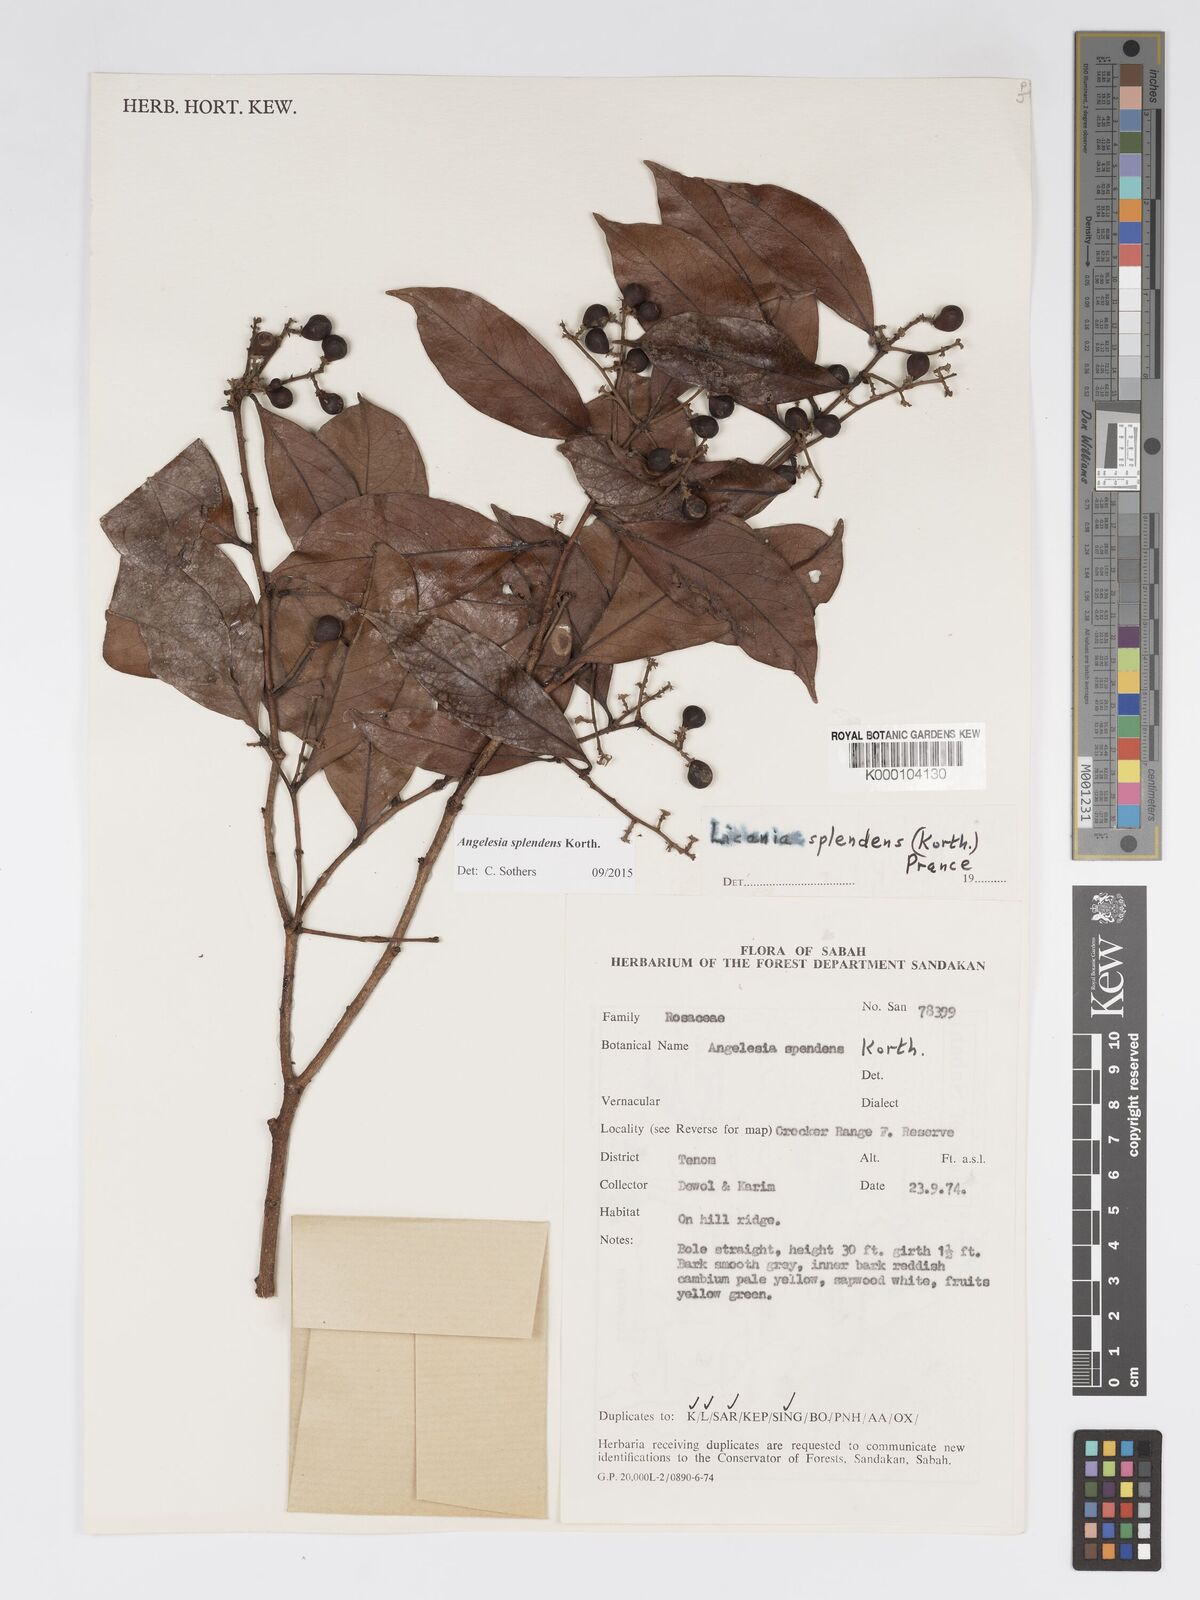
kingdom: Plantae
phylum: Tracheophyta
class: Magnoliopsida
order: Malpighiales
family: Chrysobalanaceae
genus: Angelesia
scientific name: Angelesia splendens
